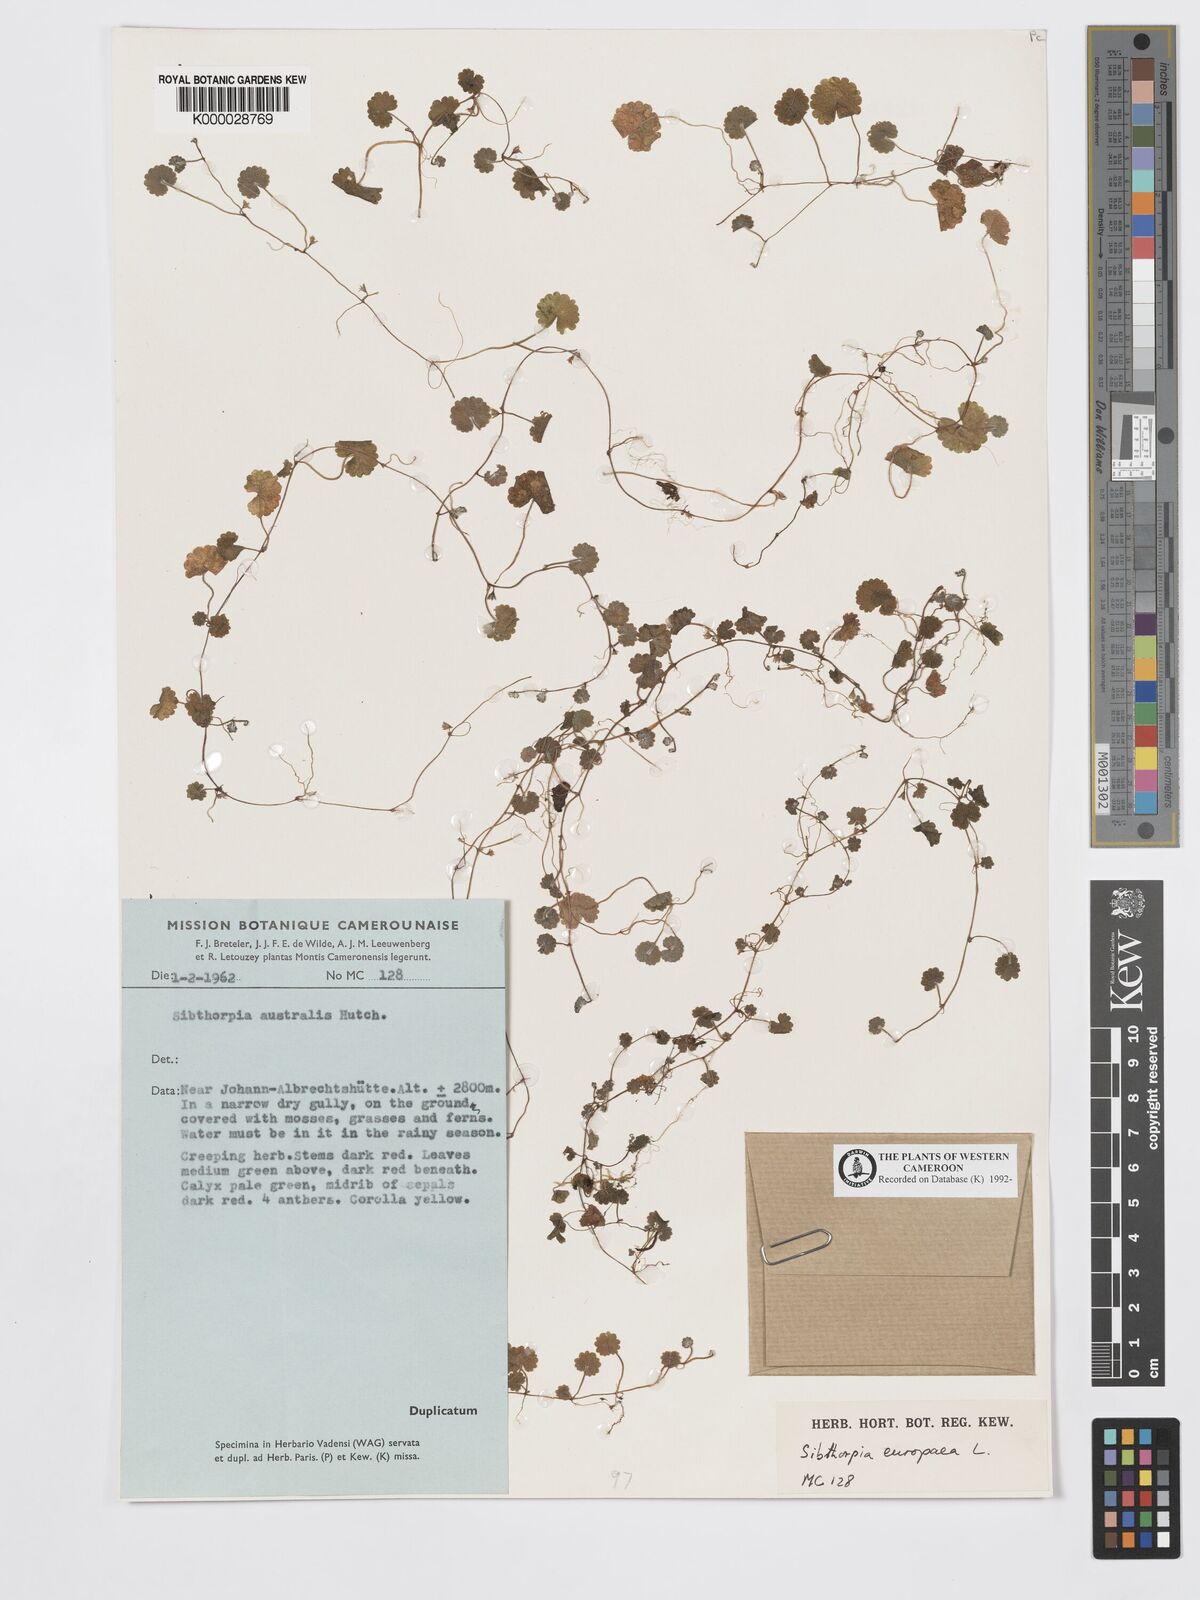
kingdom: Plantae
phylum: Tracheophyta
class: Magnoliopsida
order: Lamiales
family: Plantaginaceae
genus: Sibthorpia
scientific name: Sibthorpia europaea
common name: Cornish moneywort
